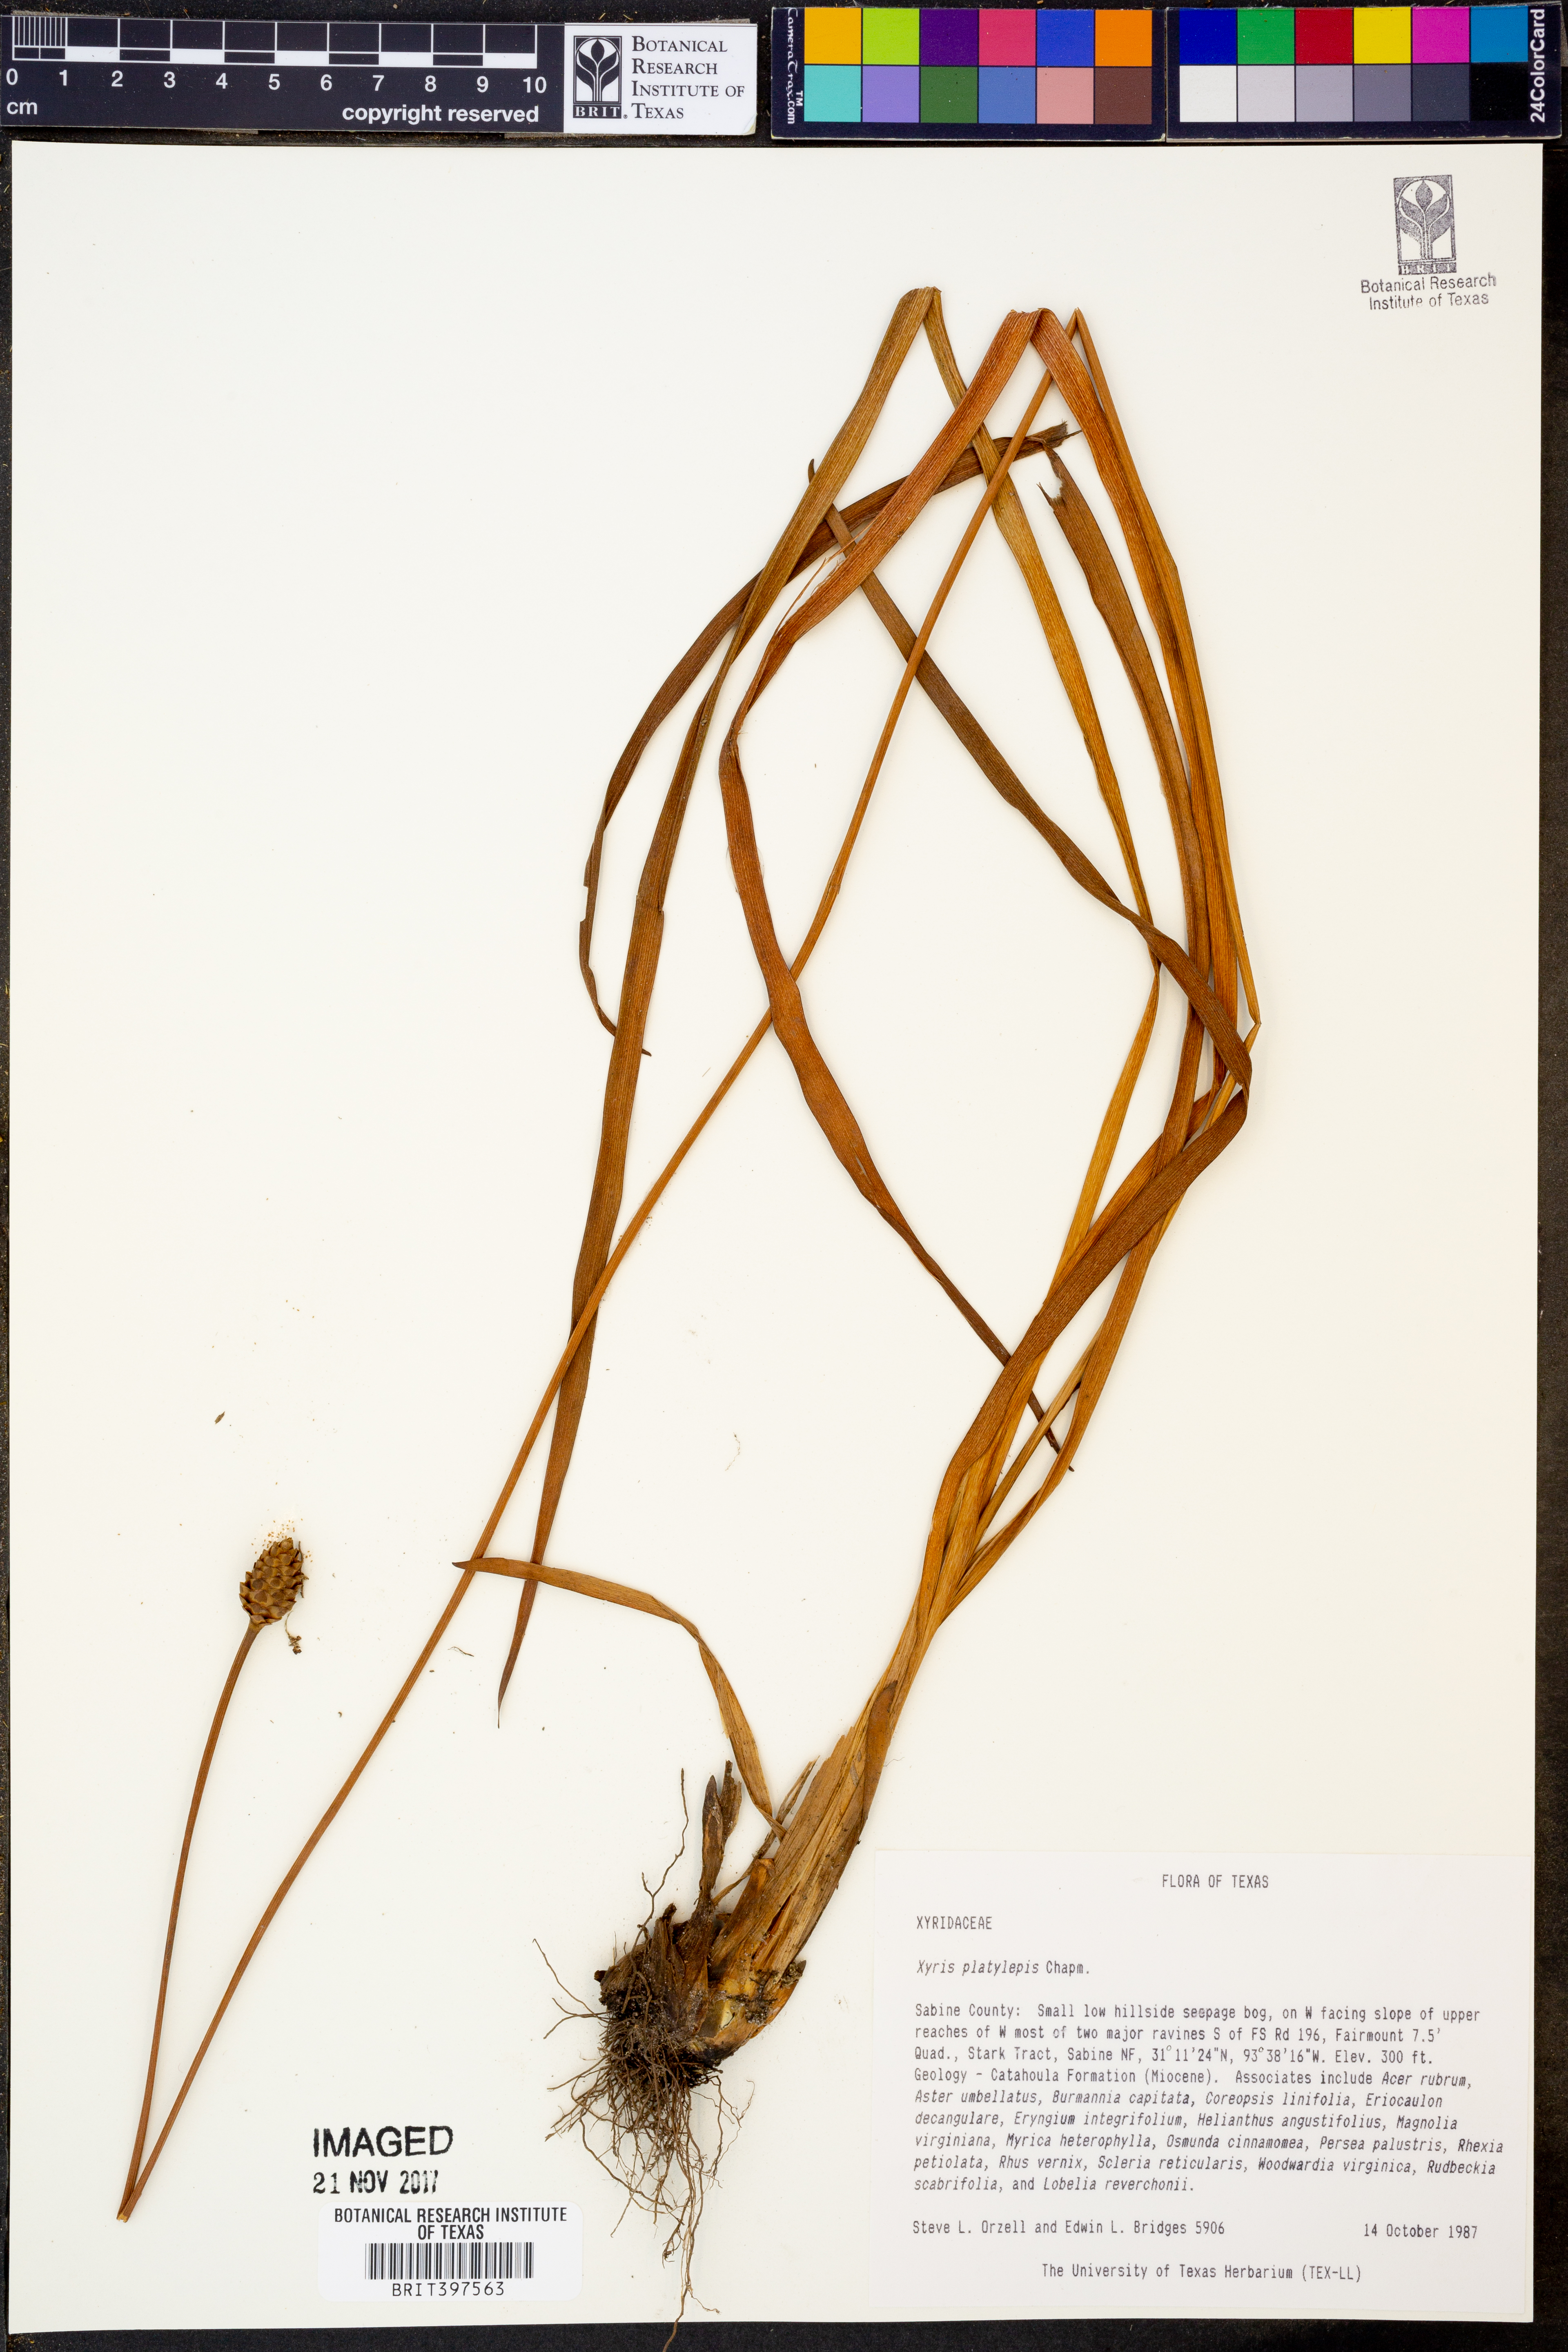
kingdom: Plantae
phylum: Tracheophyta
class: Liliopsida
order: Poales
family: Xyridaceae
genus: Xyris
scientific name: Xyris platylepis
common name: Tall yelloweyed grass
